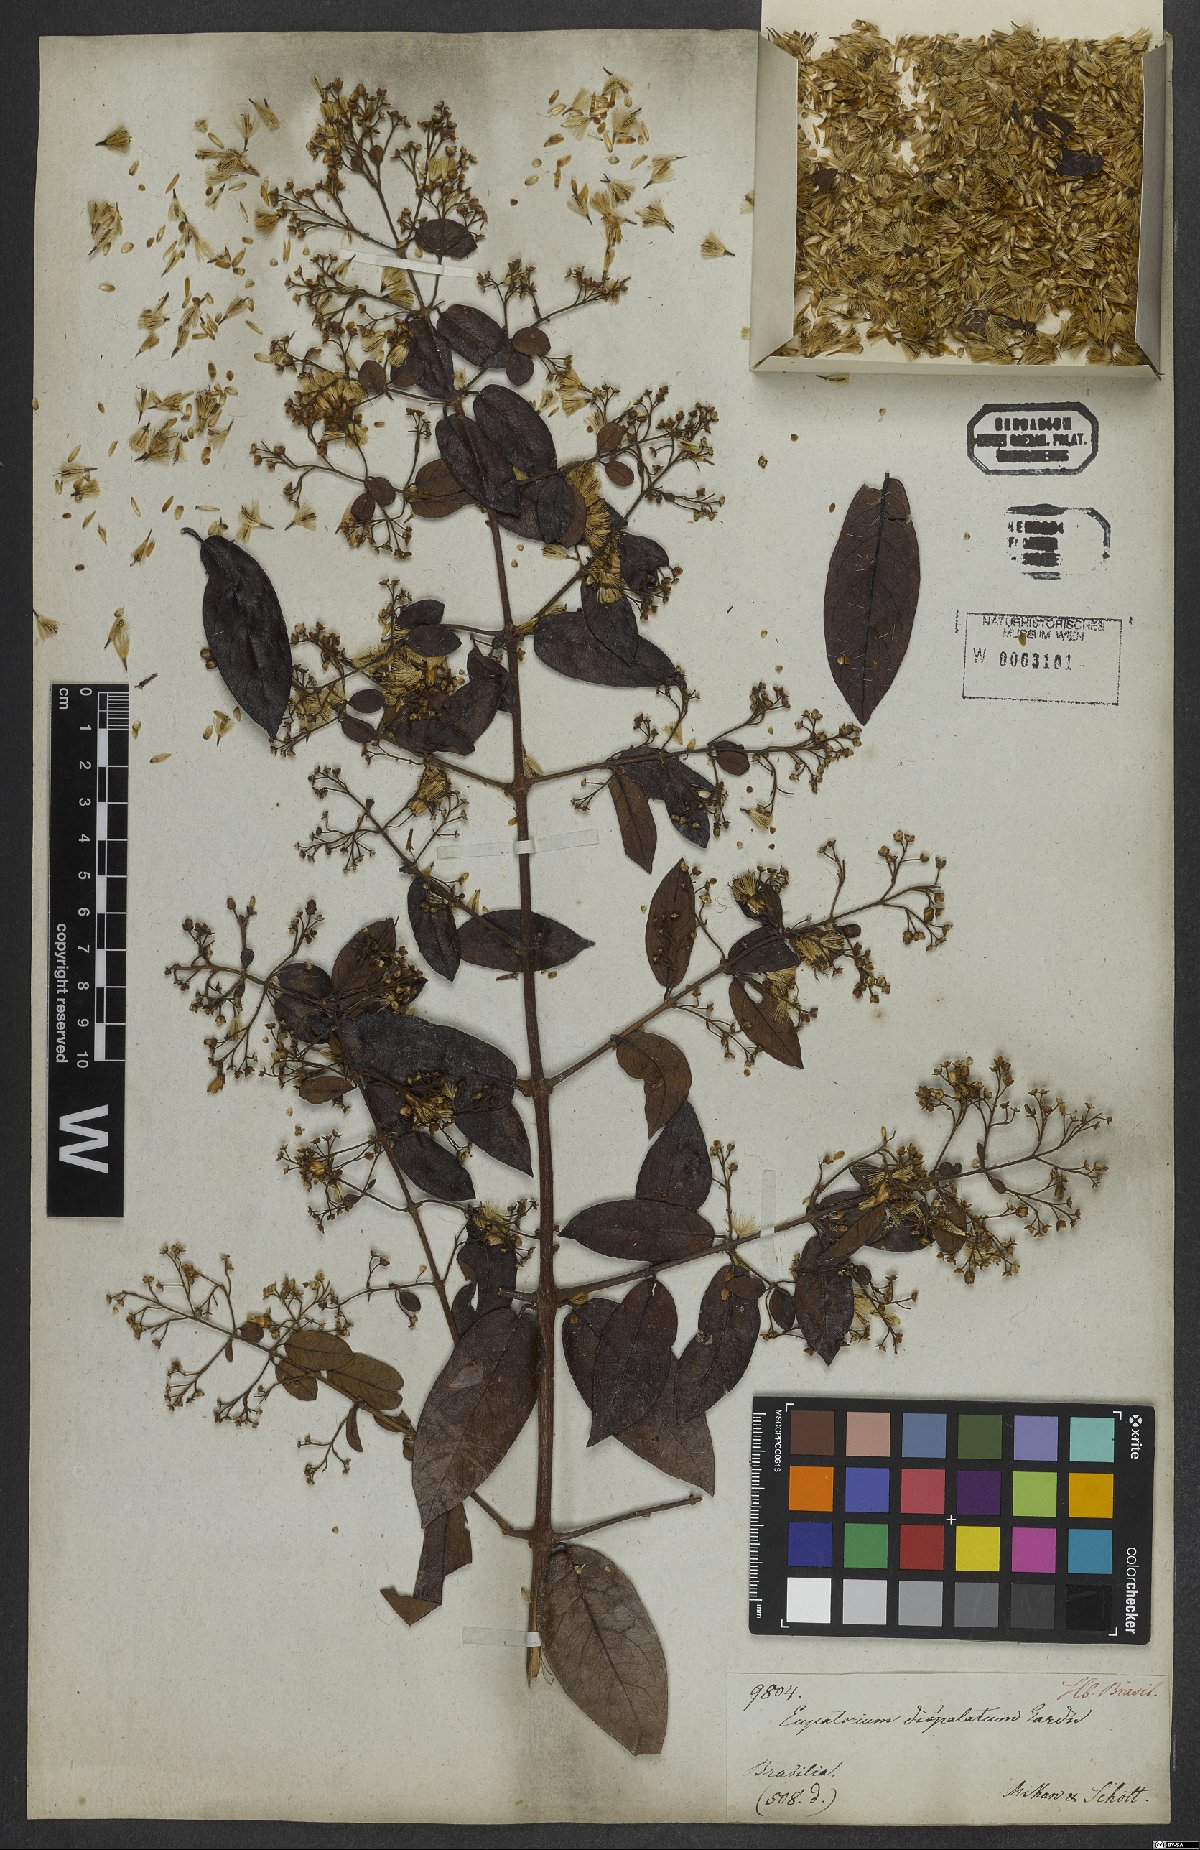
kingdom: Plantae
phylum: Tracheophyta
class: Magnoliopsida
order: Asterales
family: Asteraceae
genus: Steyermarkina
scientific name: Steyermarkina dispalata
